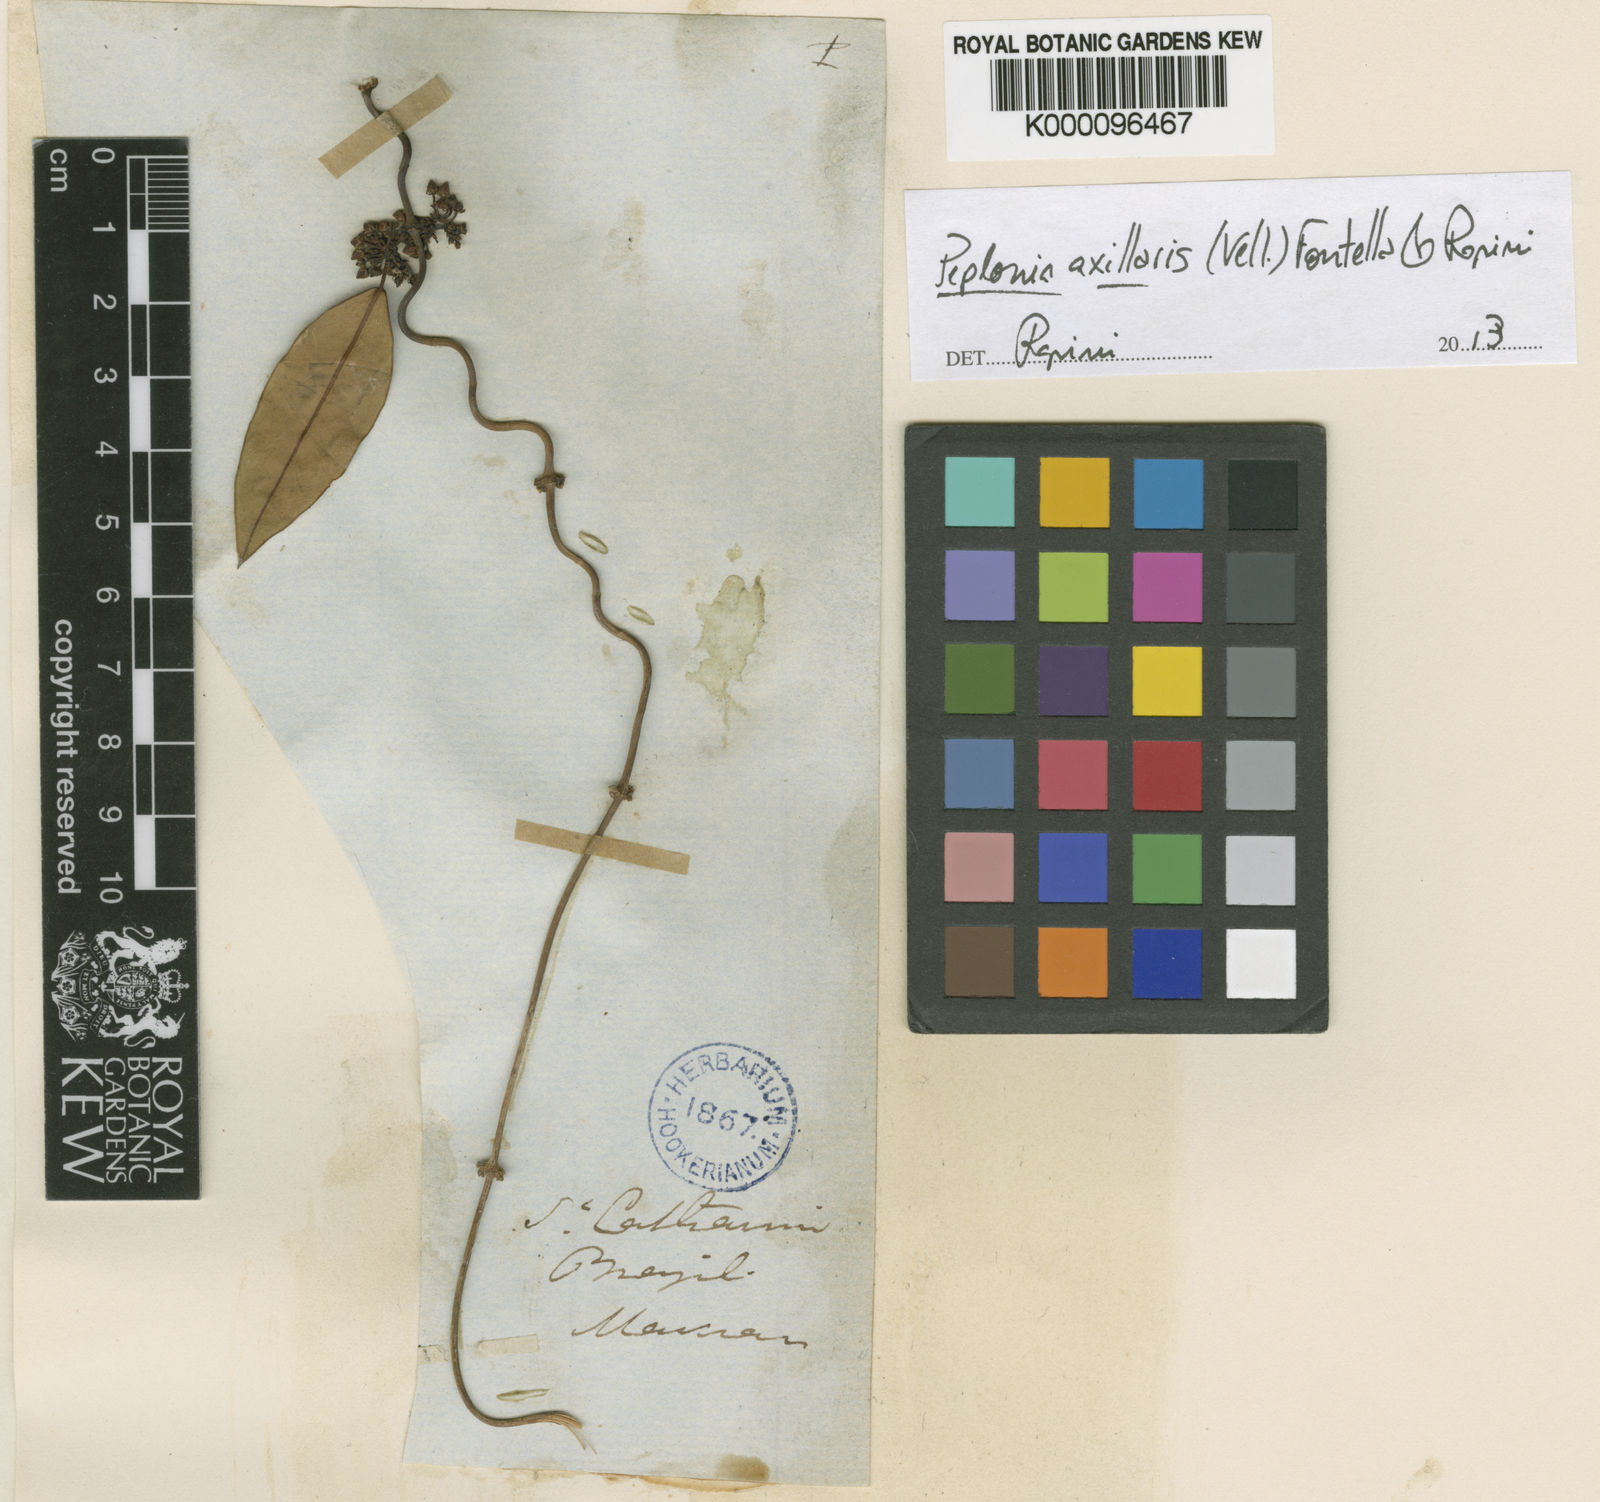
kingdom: Plantae
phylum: Tracheophyta
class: Magnoliopsida
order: Gentianales
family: Apocynaceae
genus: Peplonia
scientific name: Peplonia axillaris
